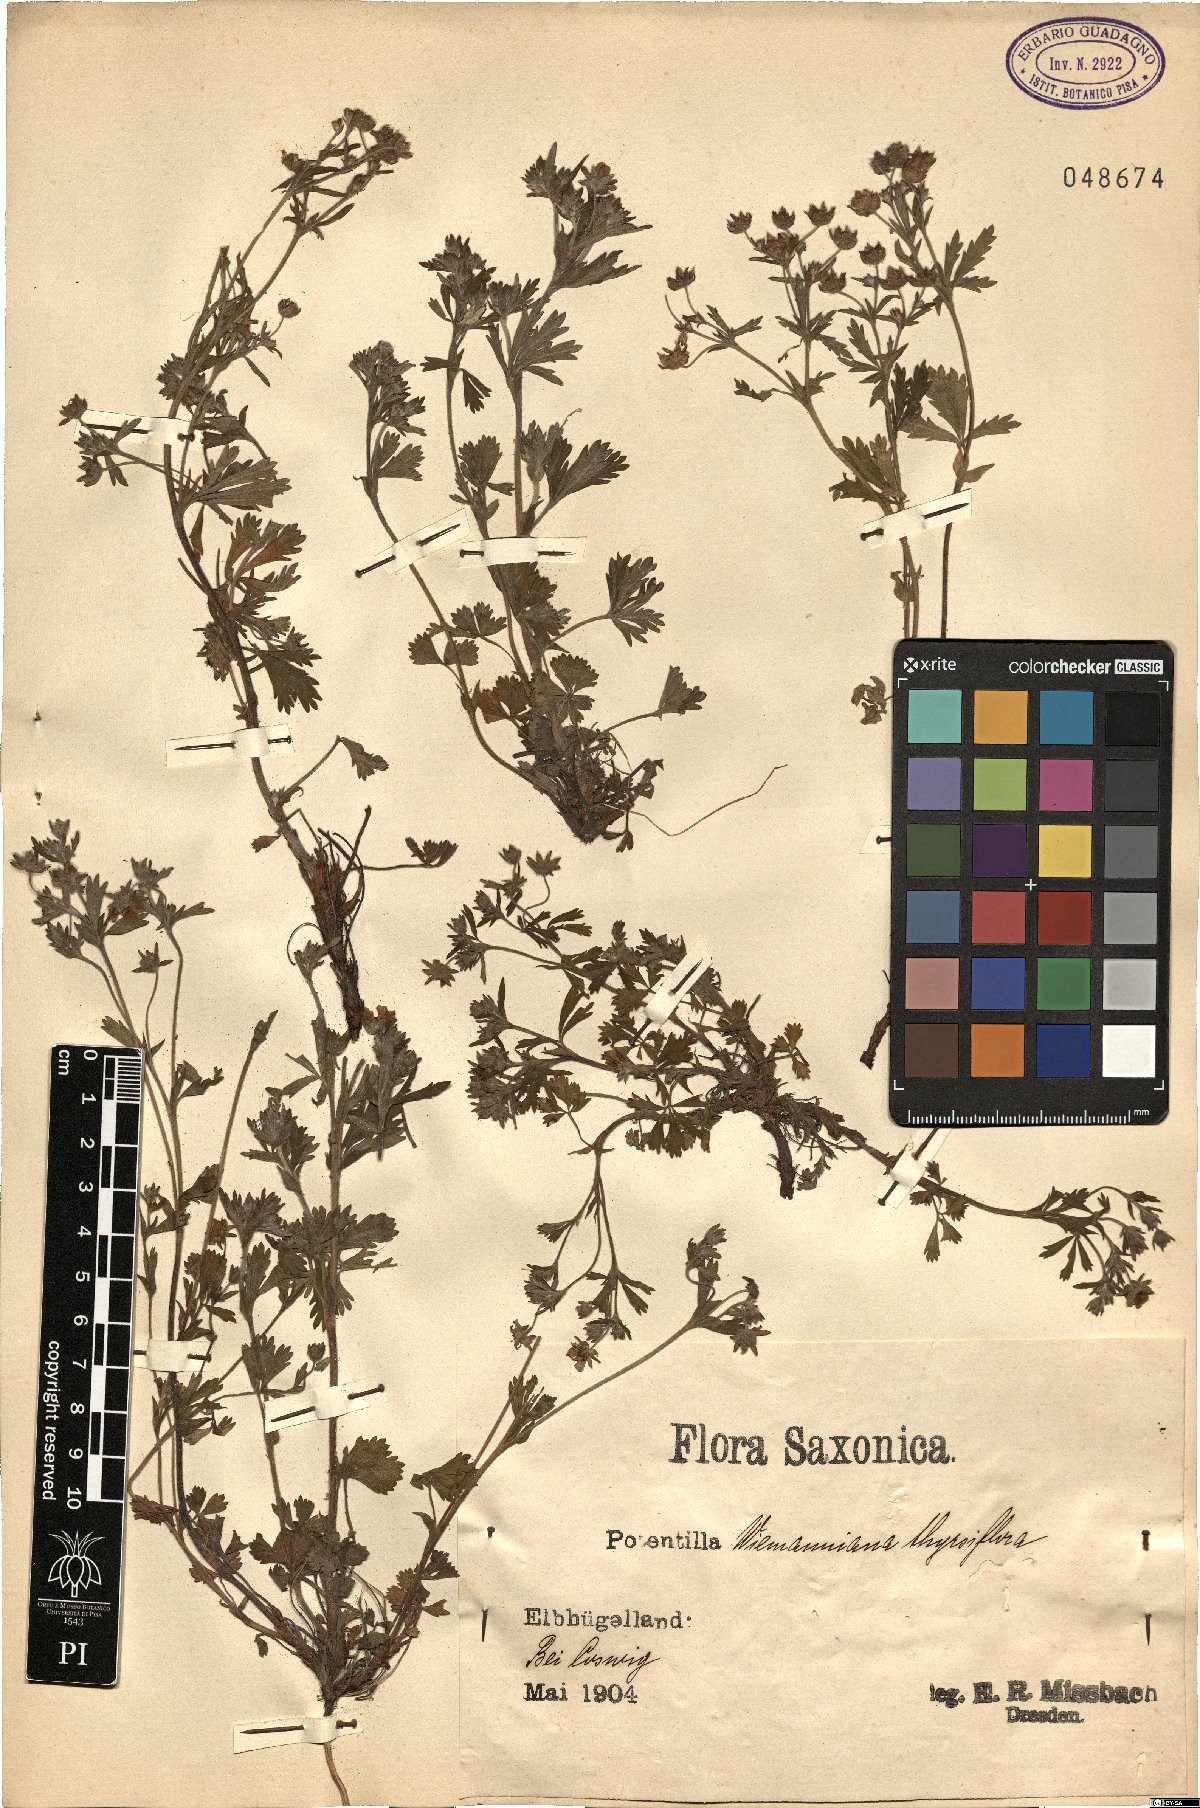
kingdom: Plantae
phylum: Tracheophyta
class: Magnoliopsida
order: Rosales
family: Rosaceae
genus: Potentilla
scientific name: Potentilla wimanniana
